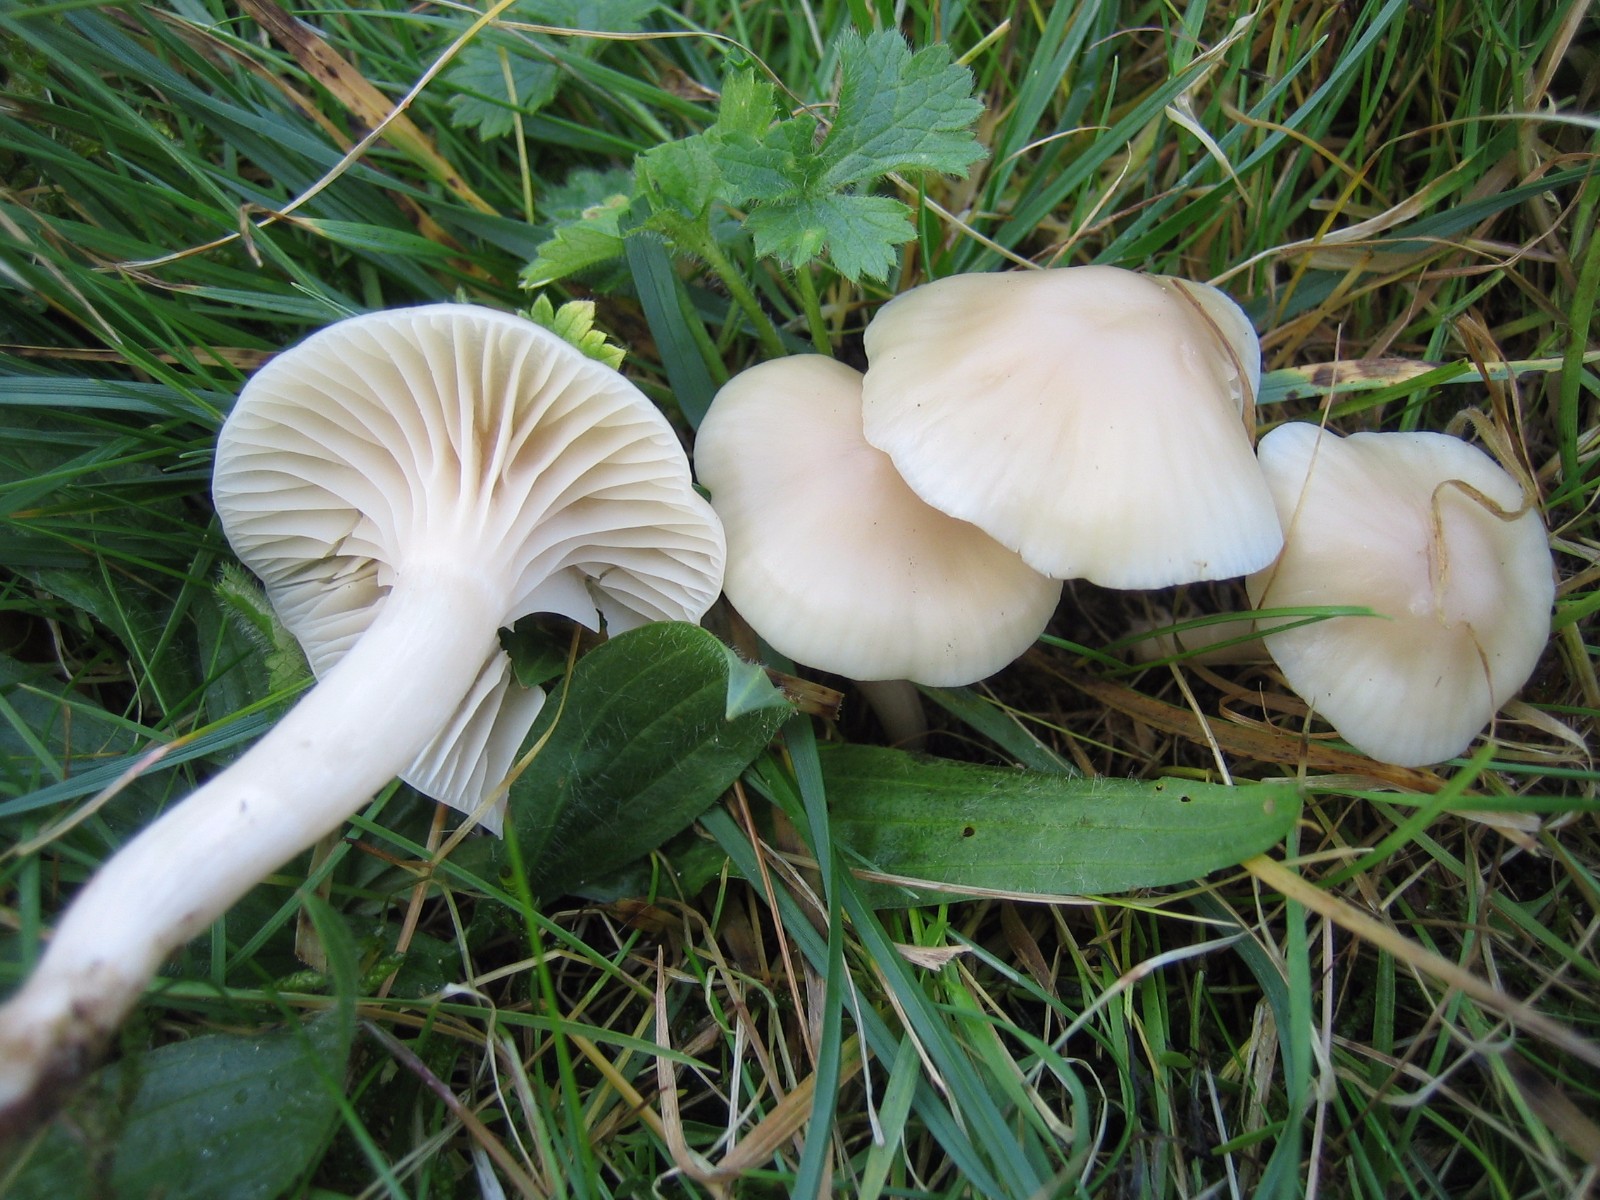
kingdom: Fungi
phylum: Basidiomycota
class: Agaricomycetes
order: Agaricales
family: Hygrophoraceae
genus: Cuphophyllus
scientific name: Cuphophyllus virgineus
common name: snehvid vokshat
